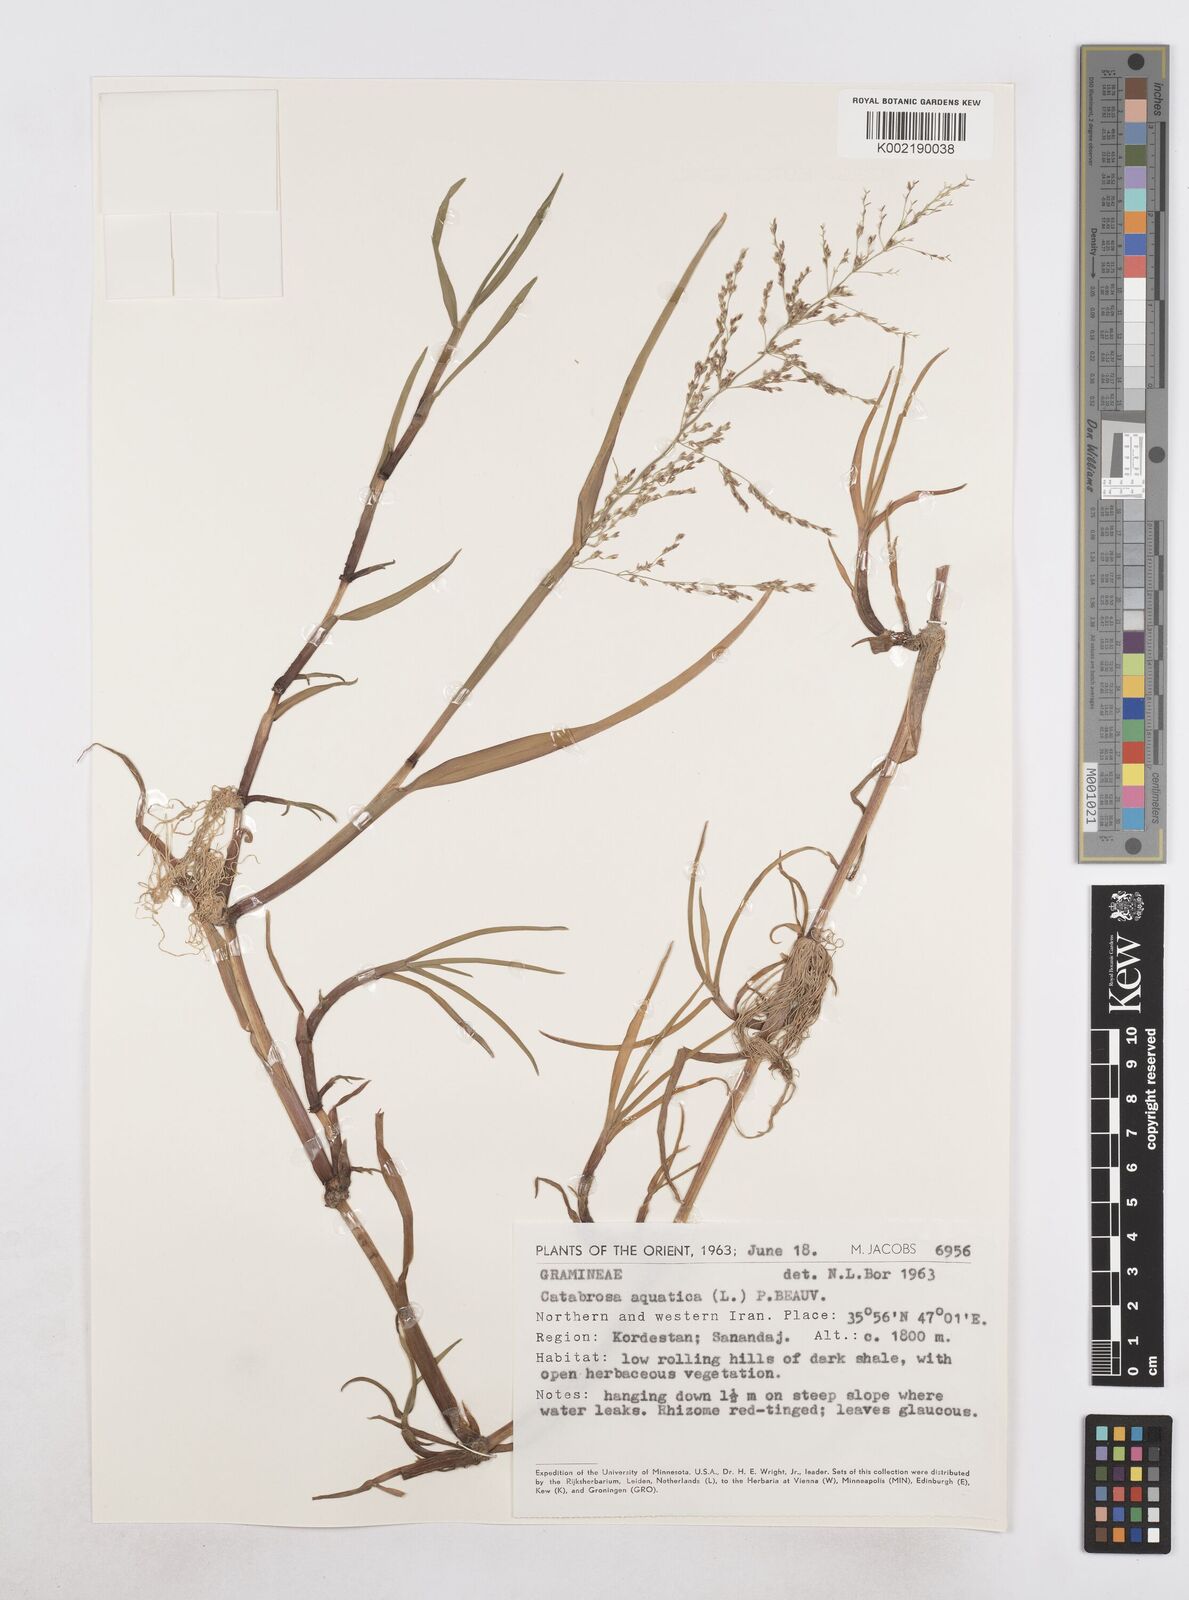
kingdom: Plantae
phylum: Tracheophyta
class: Liliopsida
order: Poales
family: Poaceae
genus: Catabrosa
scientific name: Catabrosa aquatica
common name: Whorl-grass
